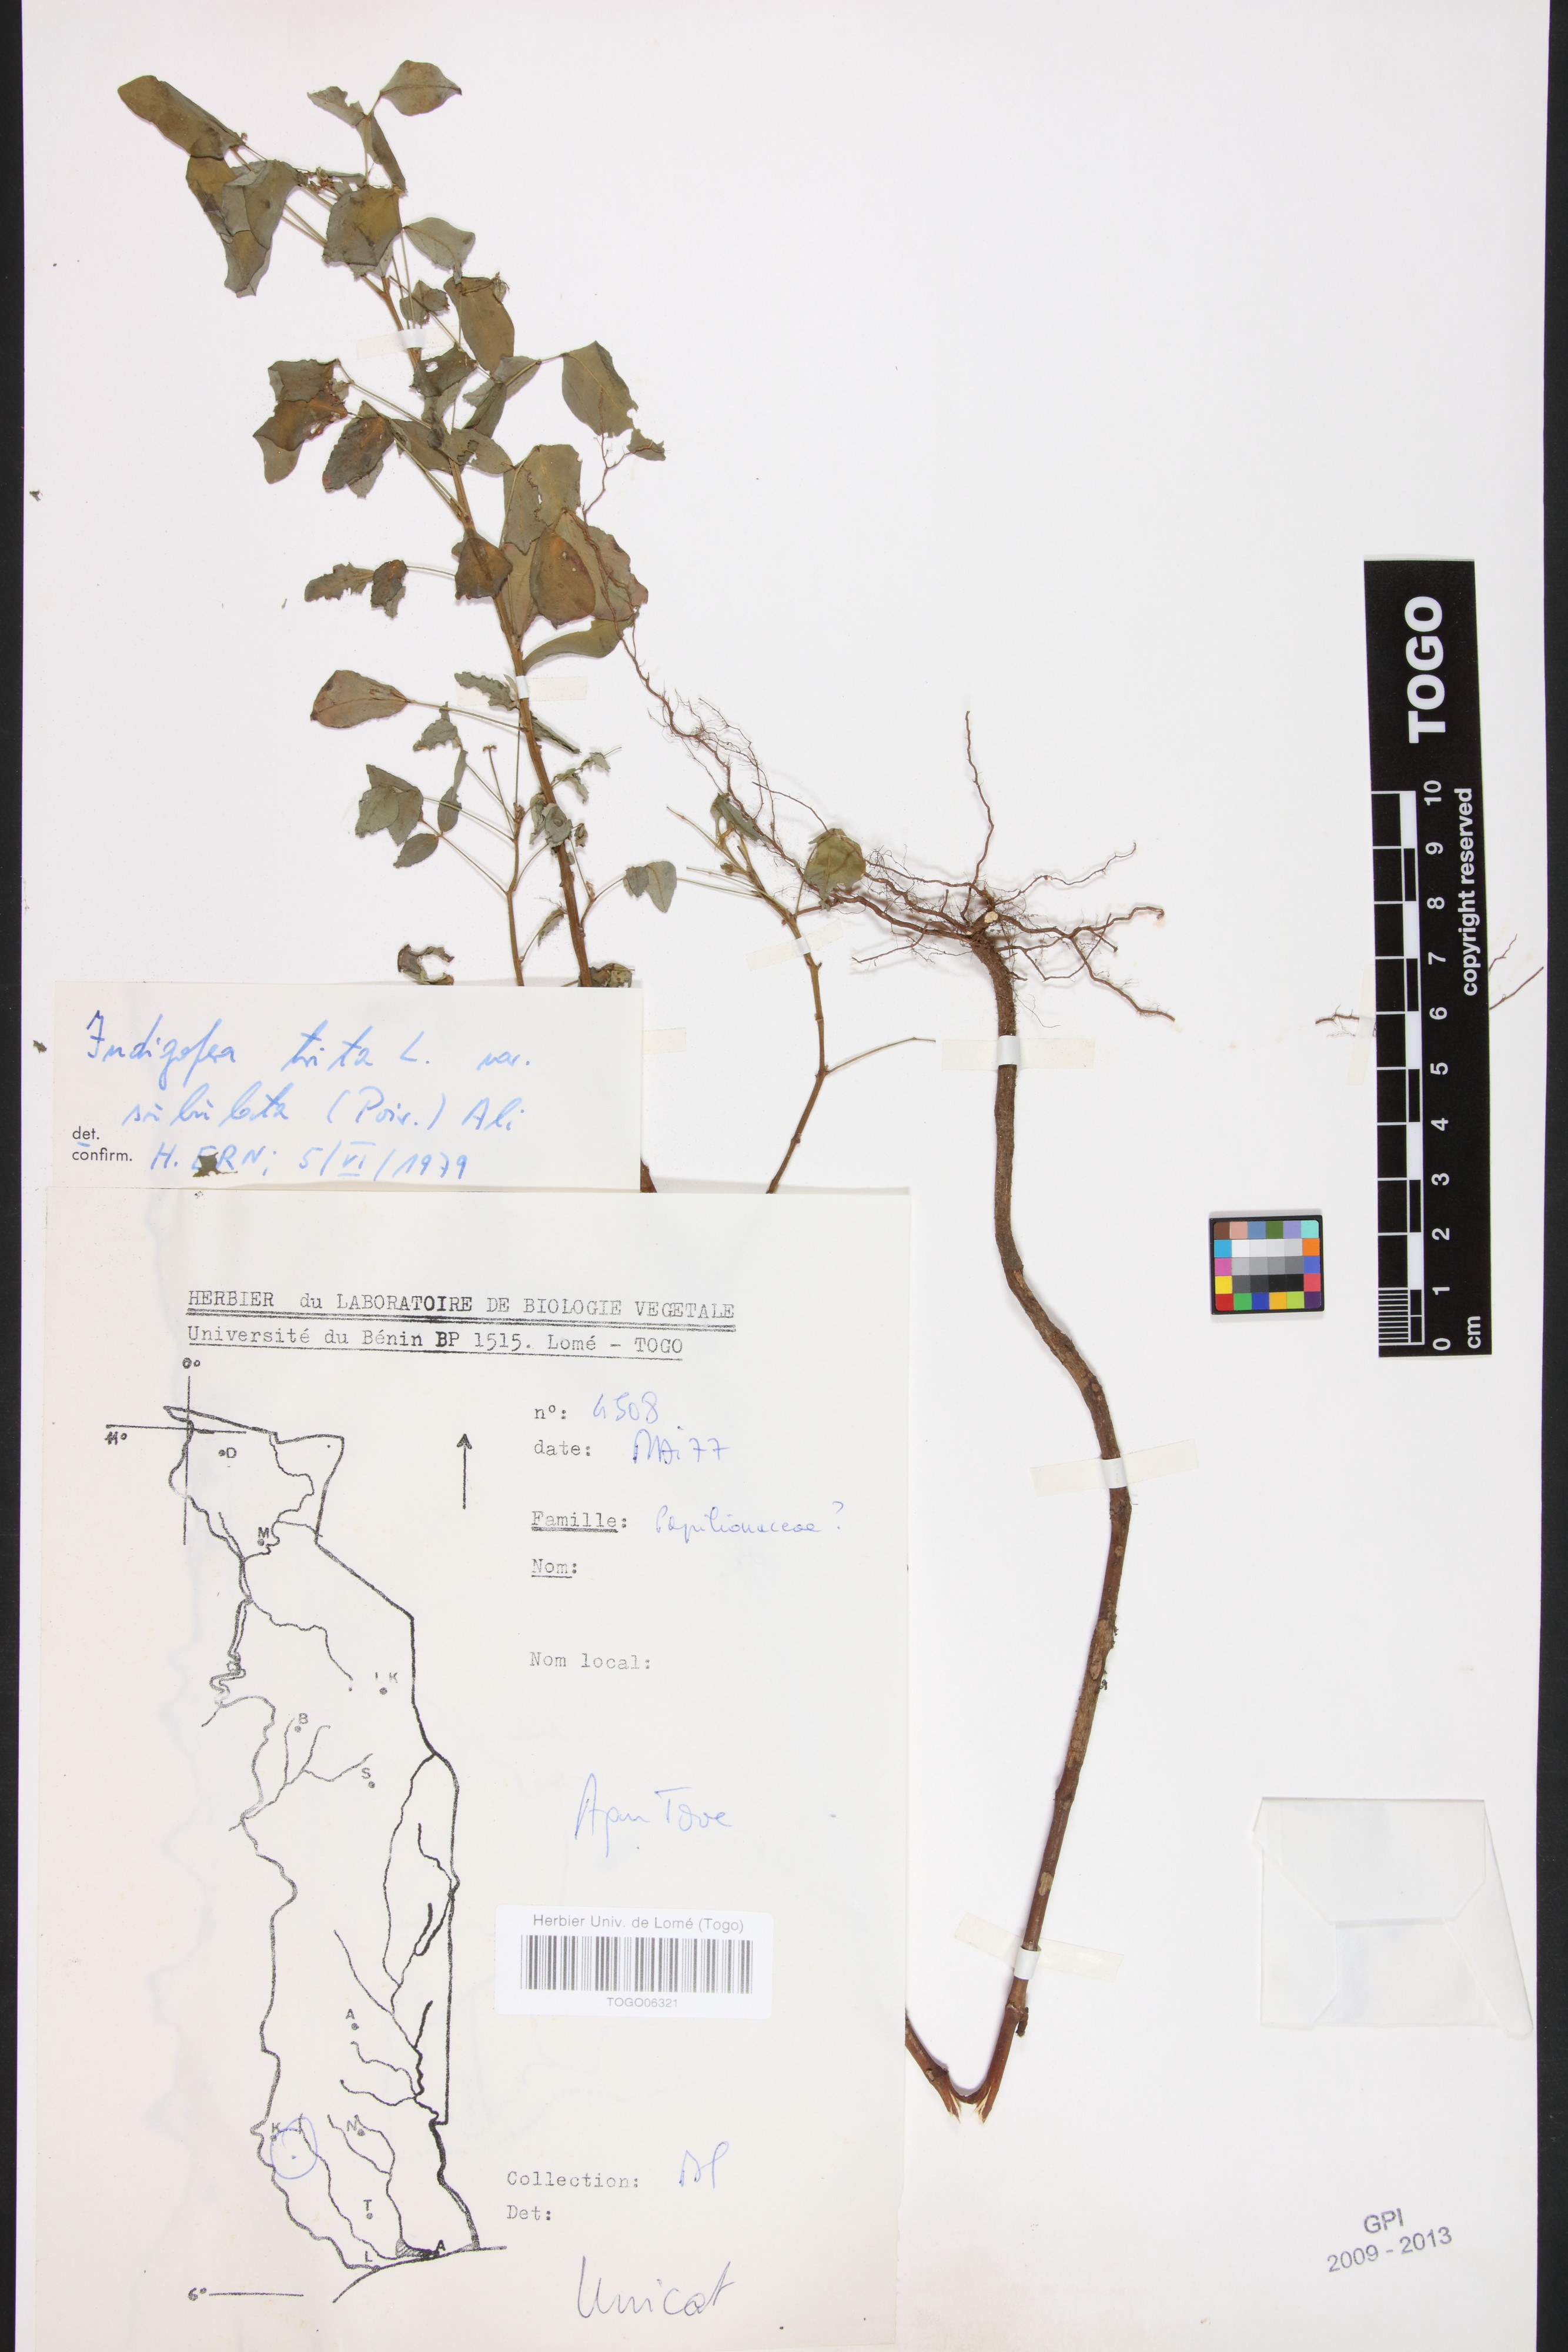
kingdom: Plantae
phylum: Tracheophyta
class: Magnoliopsida
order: Fabales
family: Fabaceae
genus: Indigofera
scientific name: Indigofera subulata
